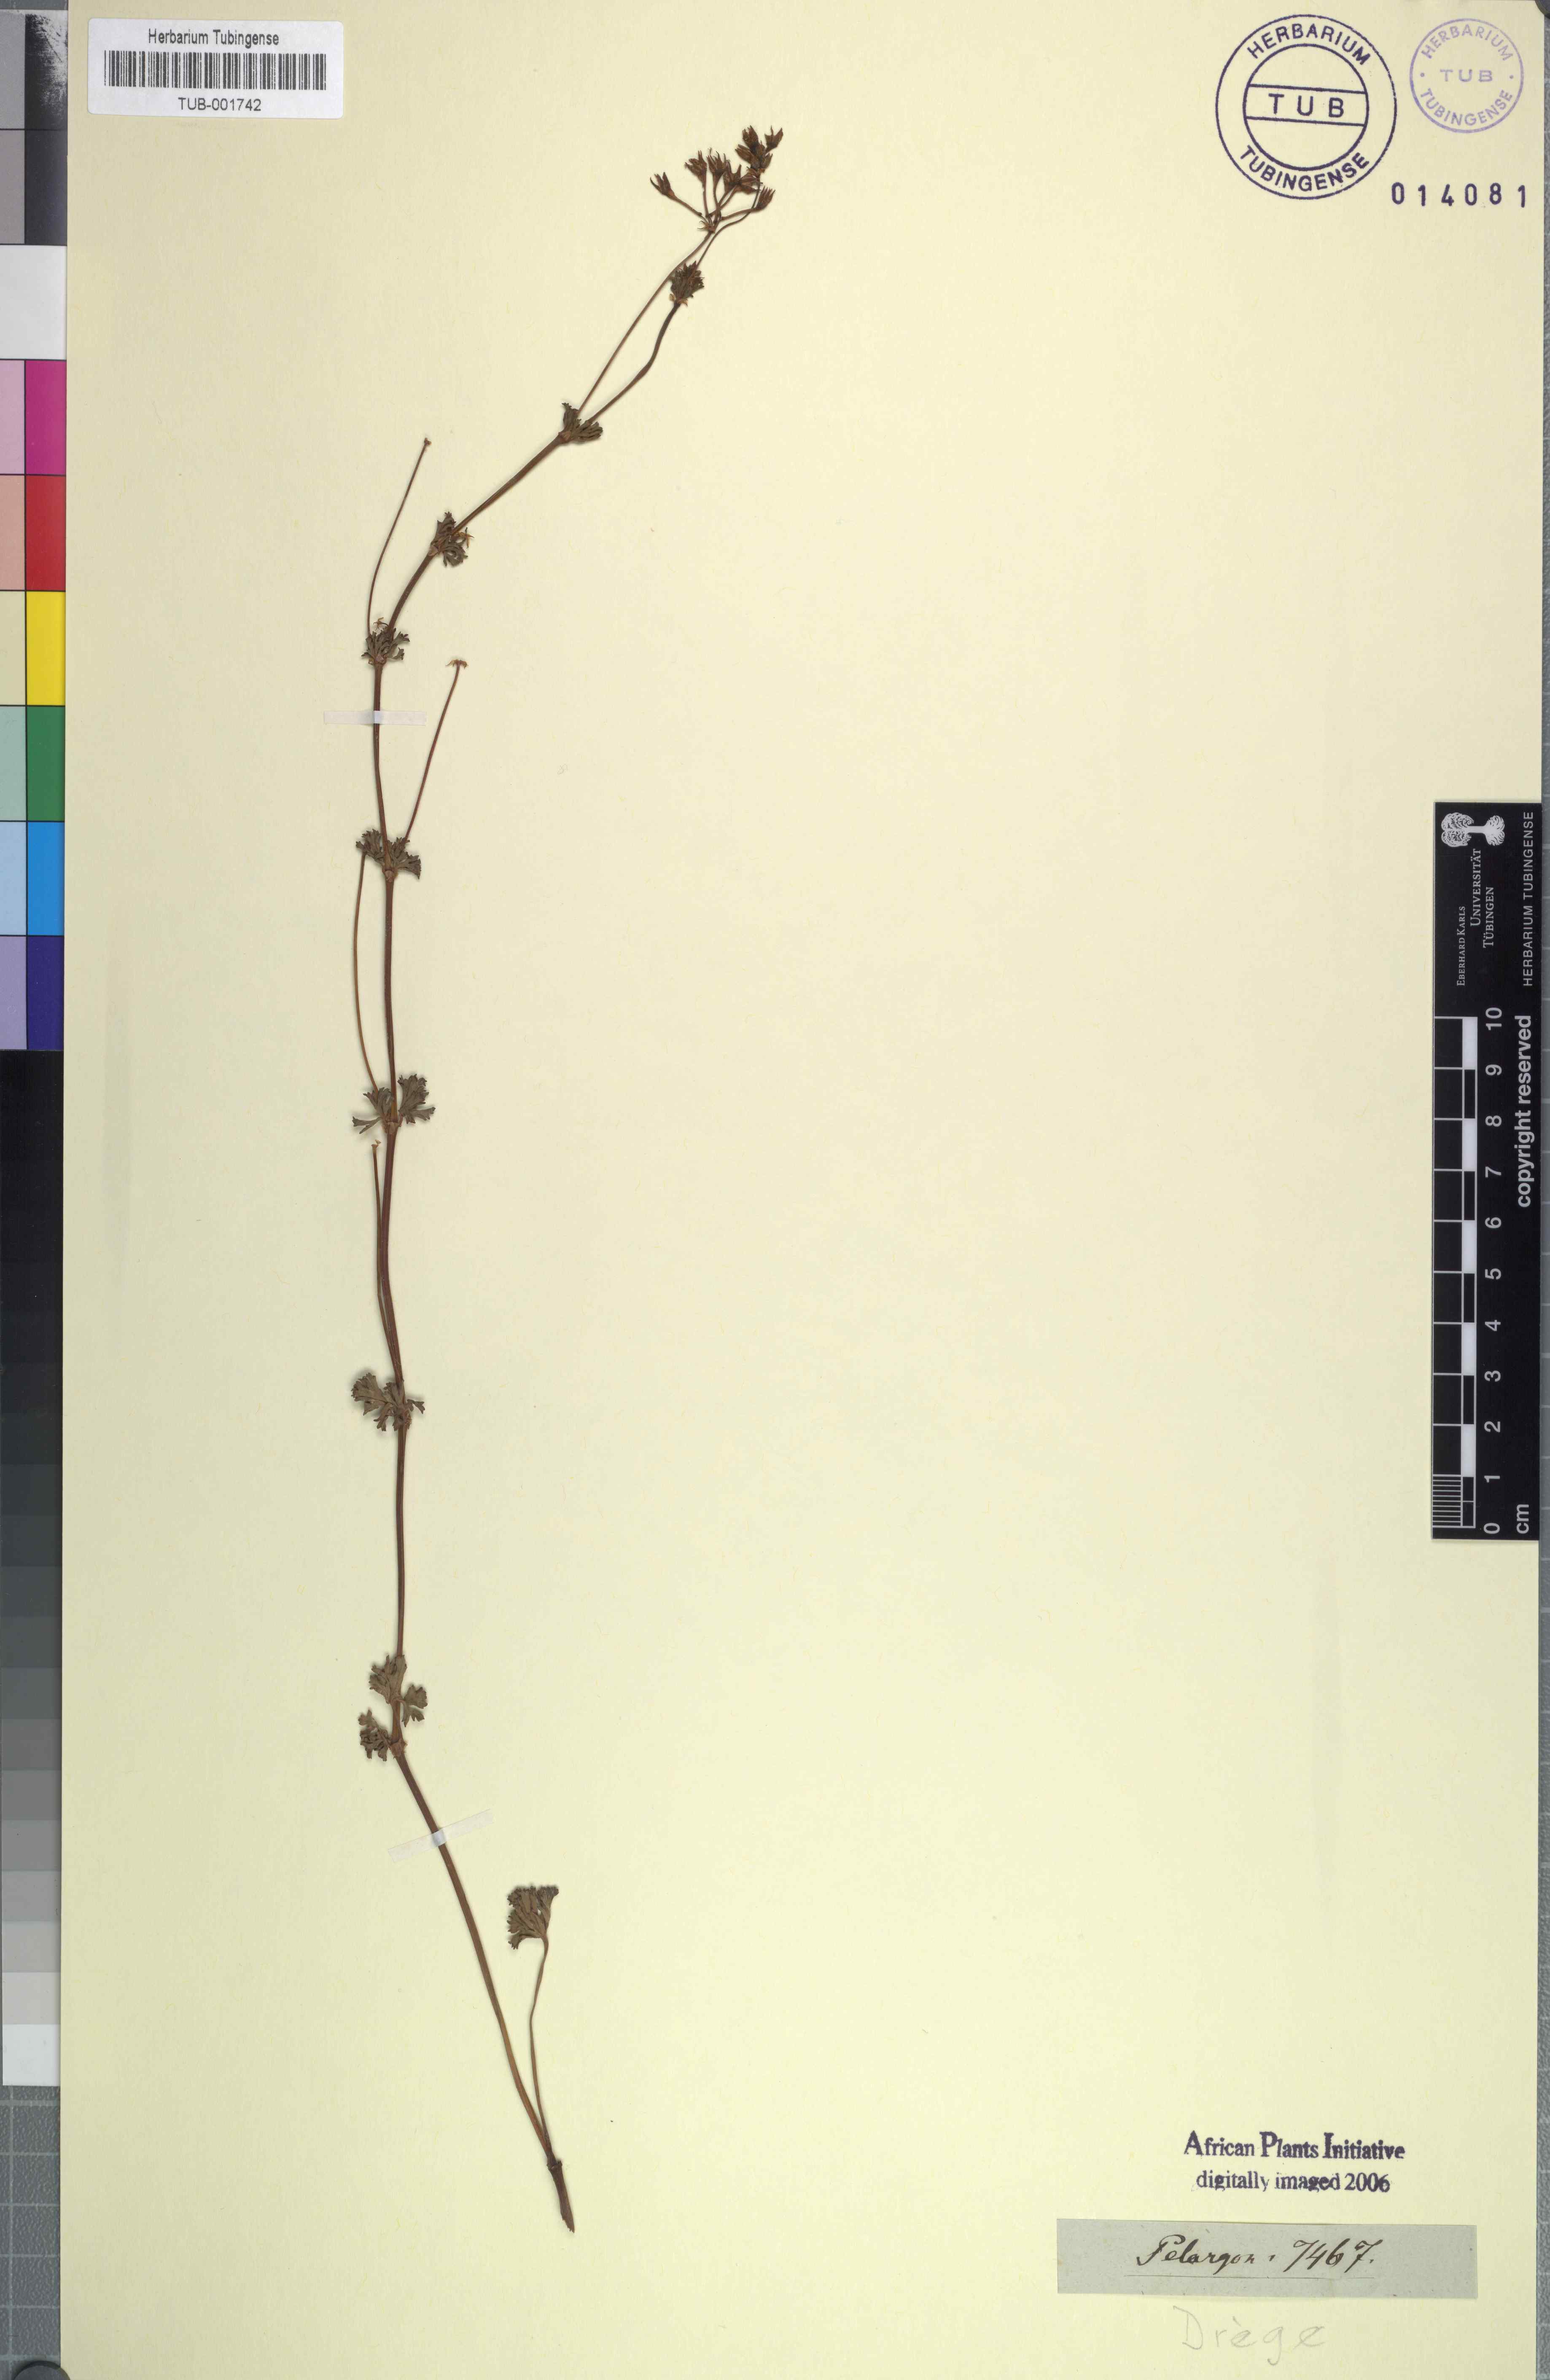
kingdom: Plantae
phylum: Tracheophyta
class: Magnoliopsida
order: Geraniales
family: Geraniaceae
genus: Pelargonium
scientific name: Pelargonium
